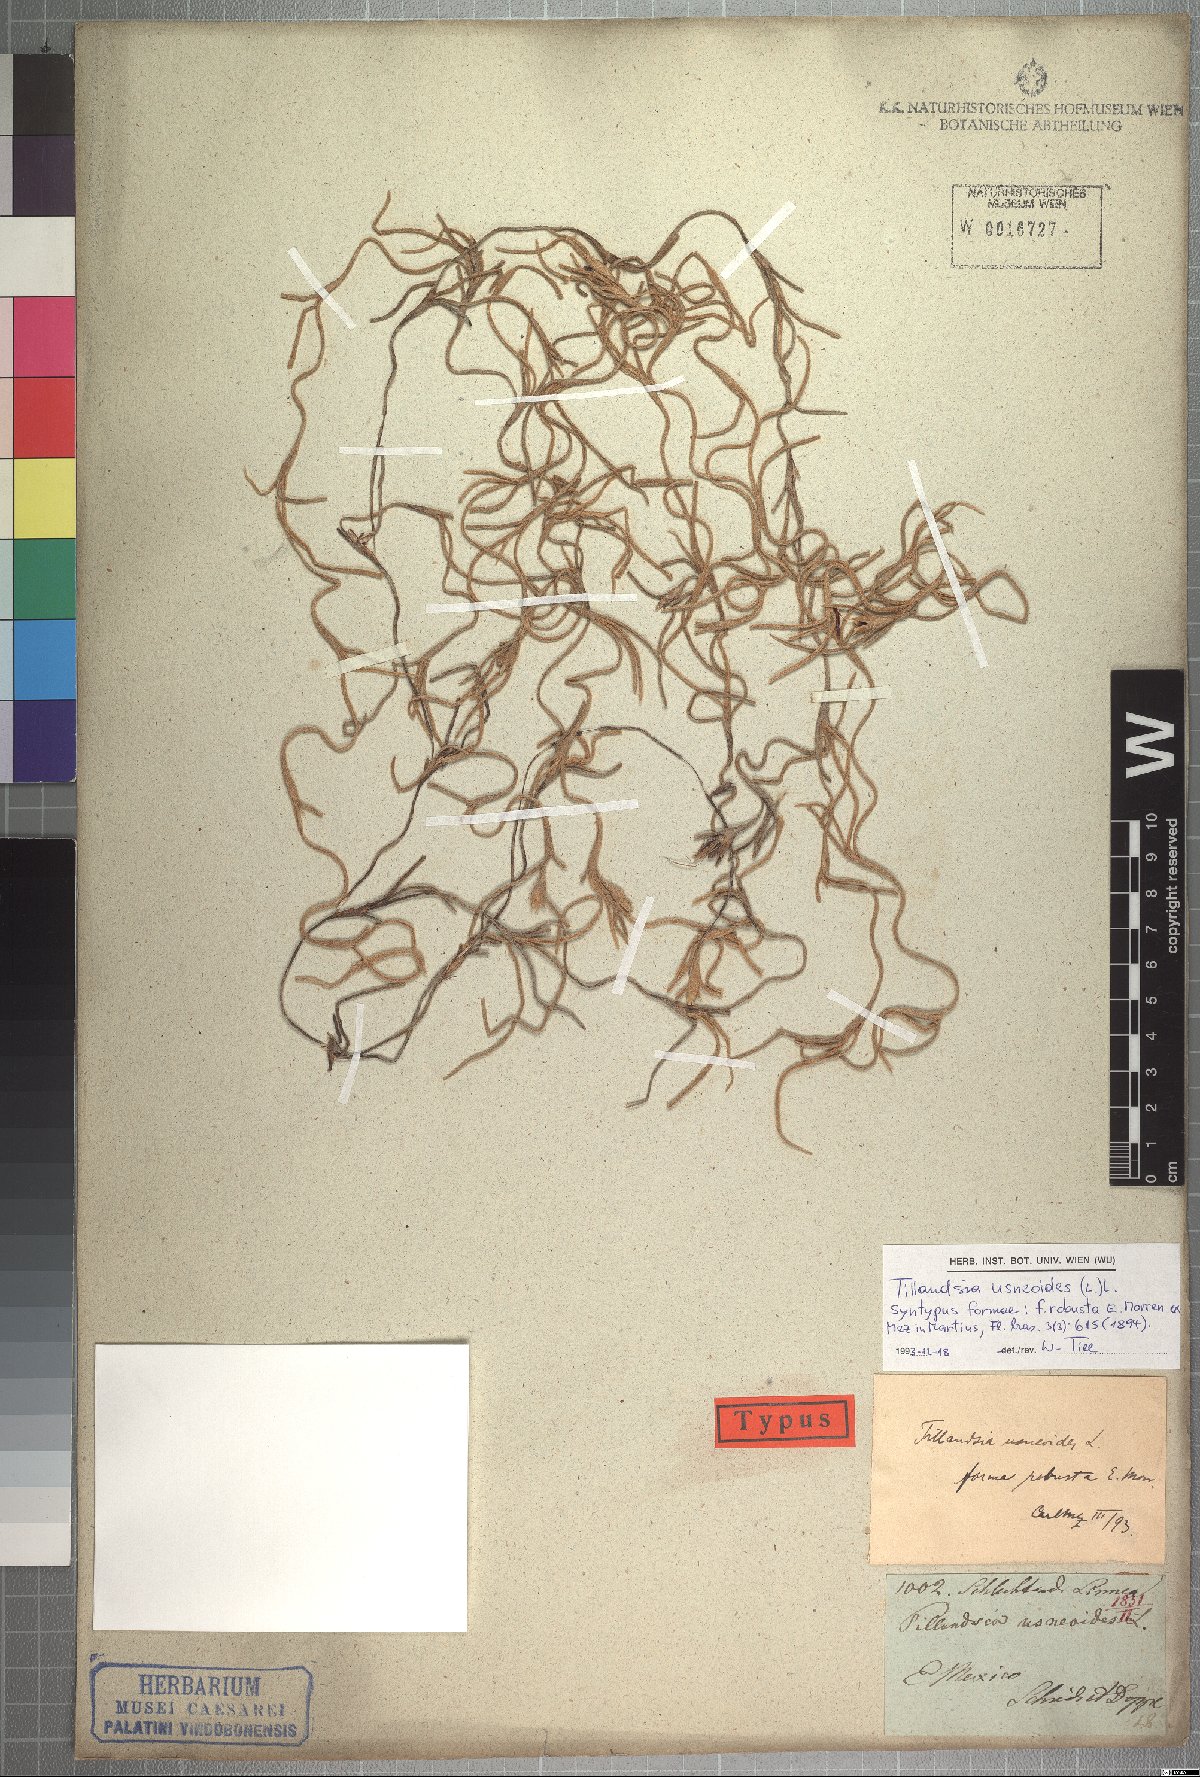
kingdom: Plantae
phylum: Tracheophyta
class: Liliopsida
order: Poales
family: Bromeliaceae
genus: Tillandsia
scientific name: Tillandsia usneoides
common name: Spanish moss
